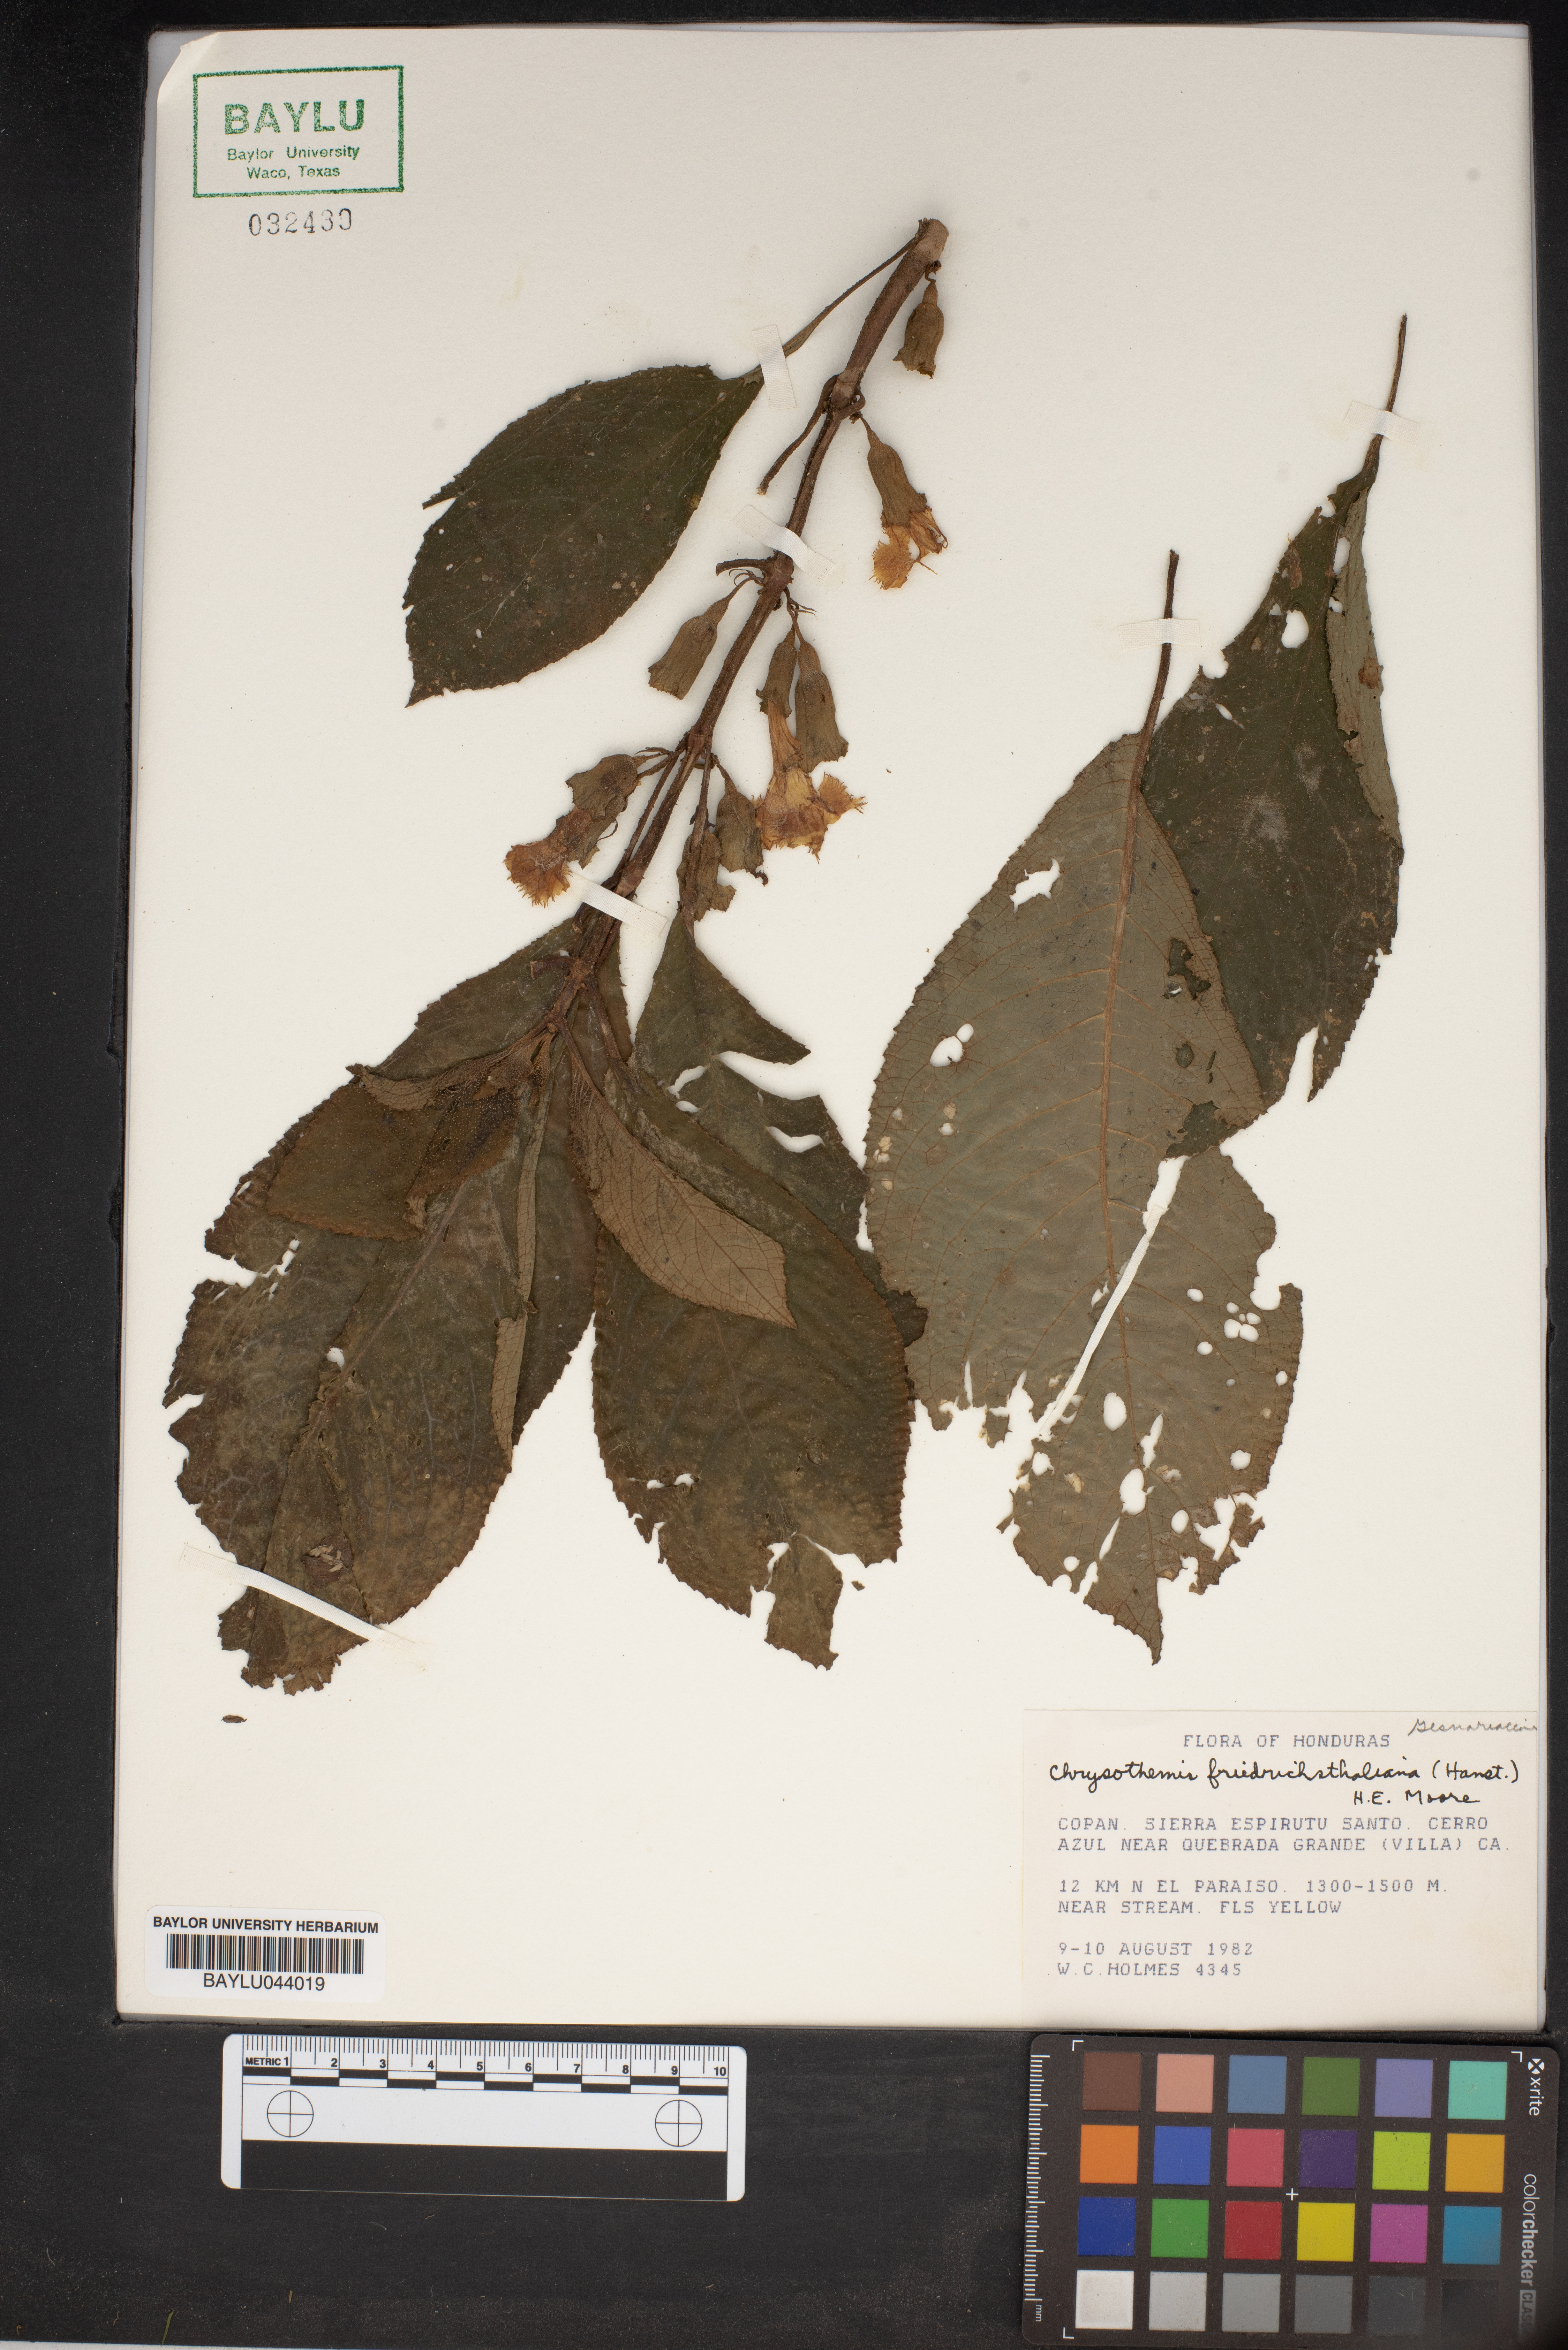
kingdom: Plantae
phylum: Tracheophyta
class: Magnoliopsida
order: Lamiales
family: Gesneriaceae
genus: Chrysothemis
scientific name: Chrysothemis friedrichsthaliana
